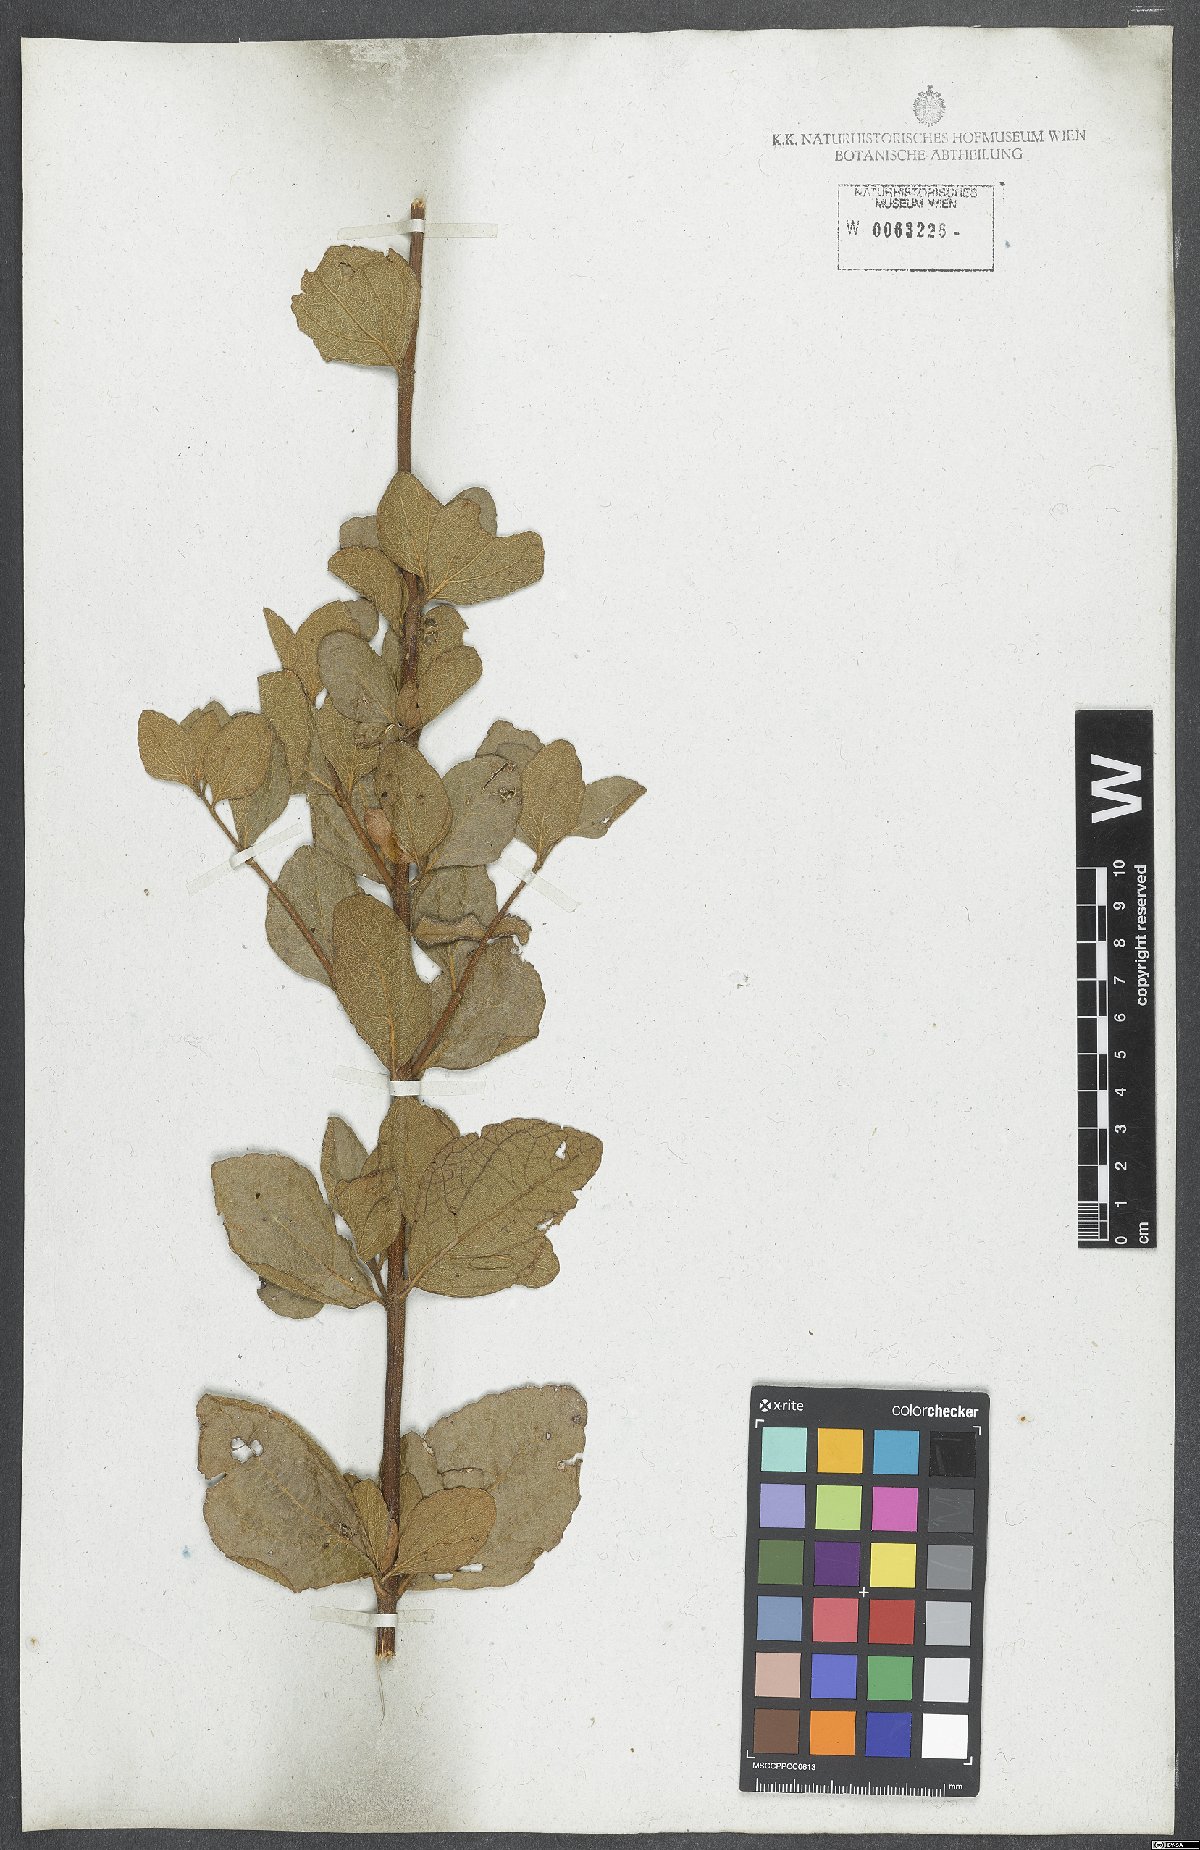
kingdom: Plantae
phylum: Tracheophyta
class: Magnoliopsida
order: Asterales
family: Asteraceae
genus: Chromolaena
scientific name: Chromolaena squalida
